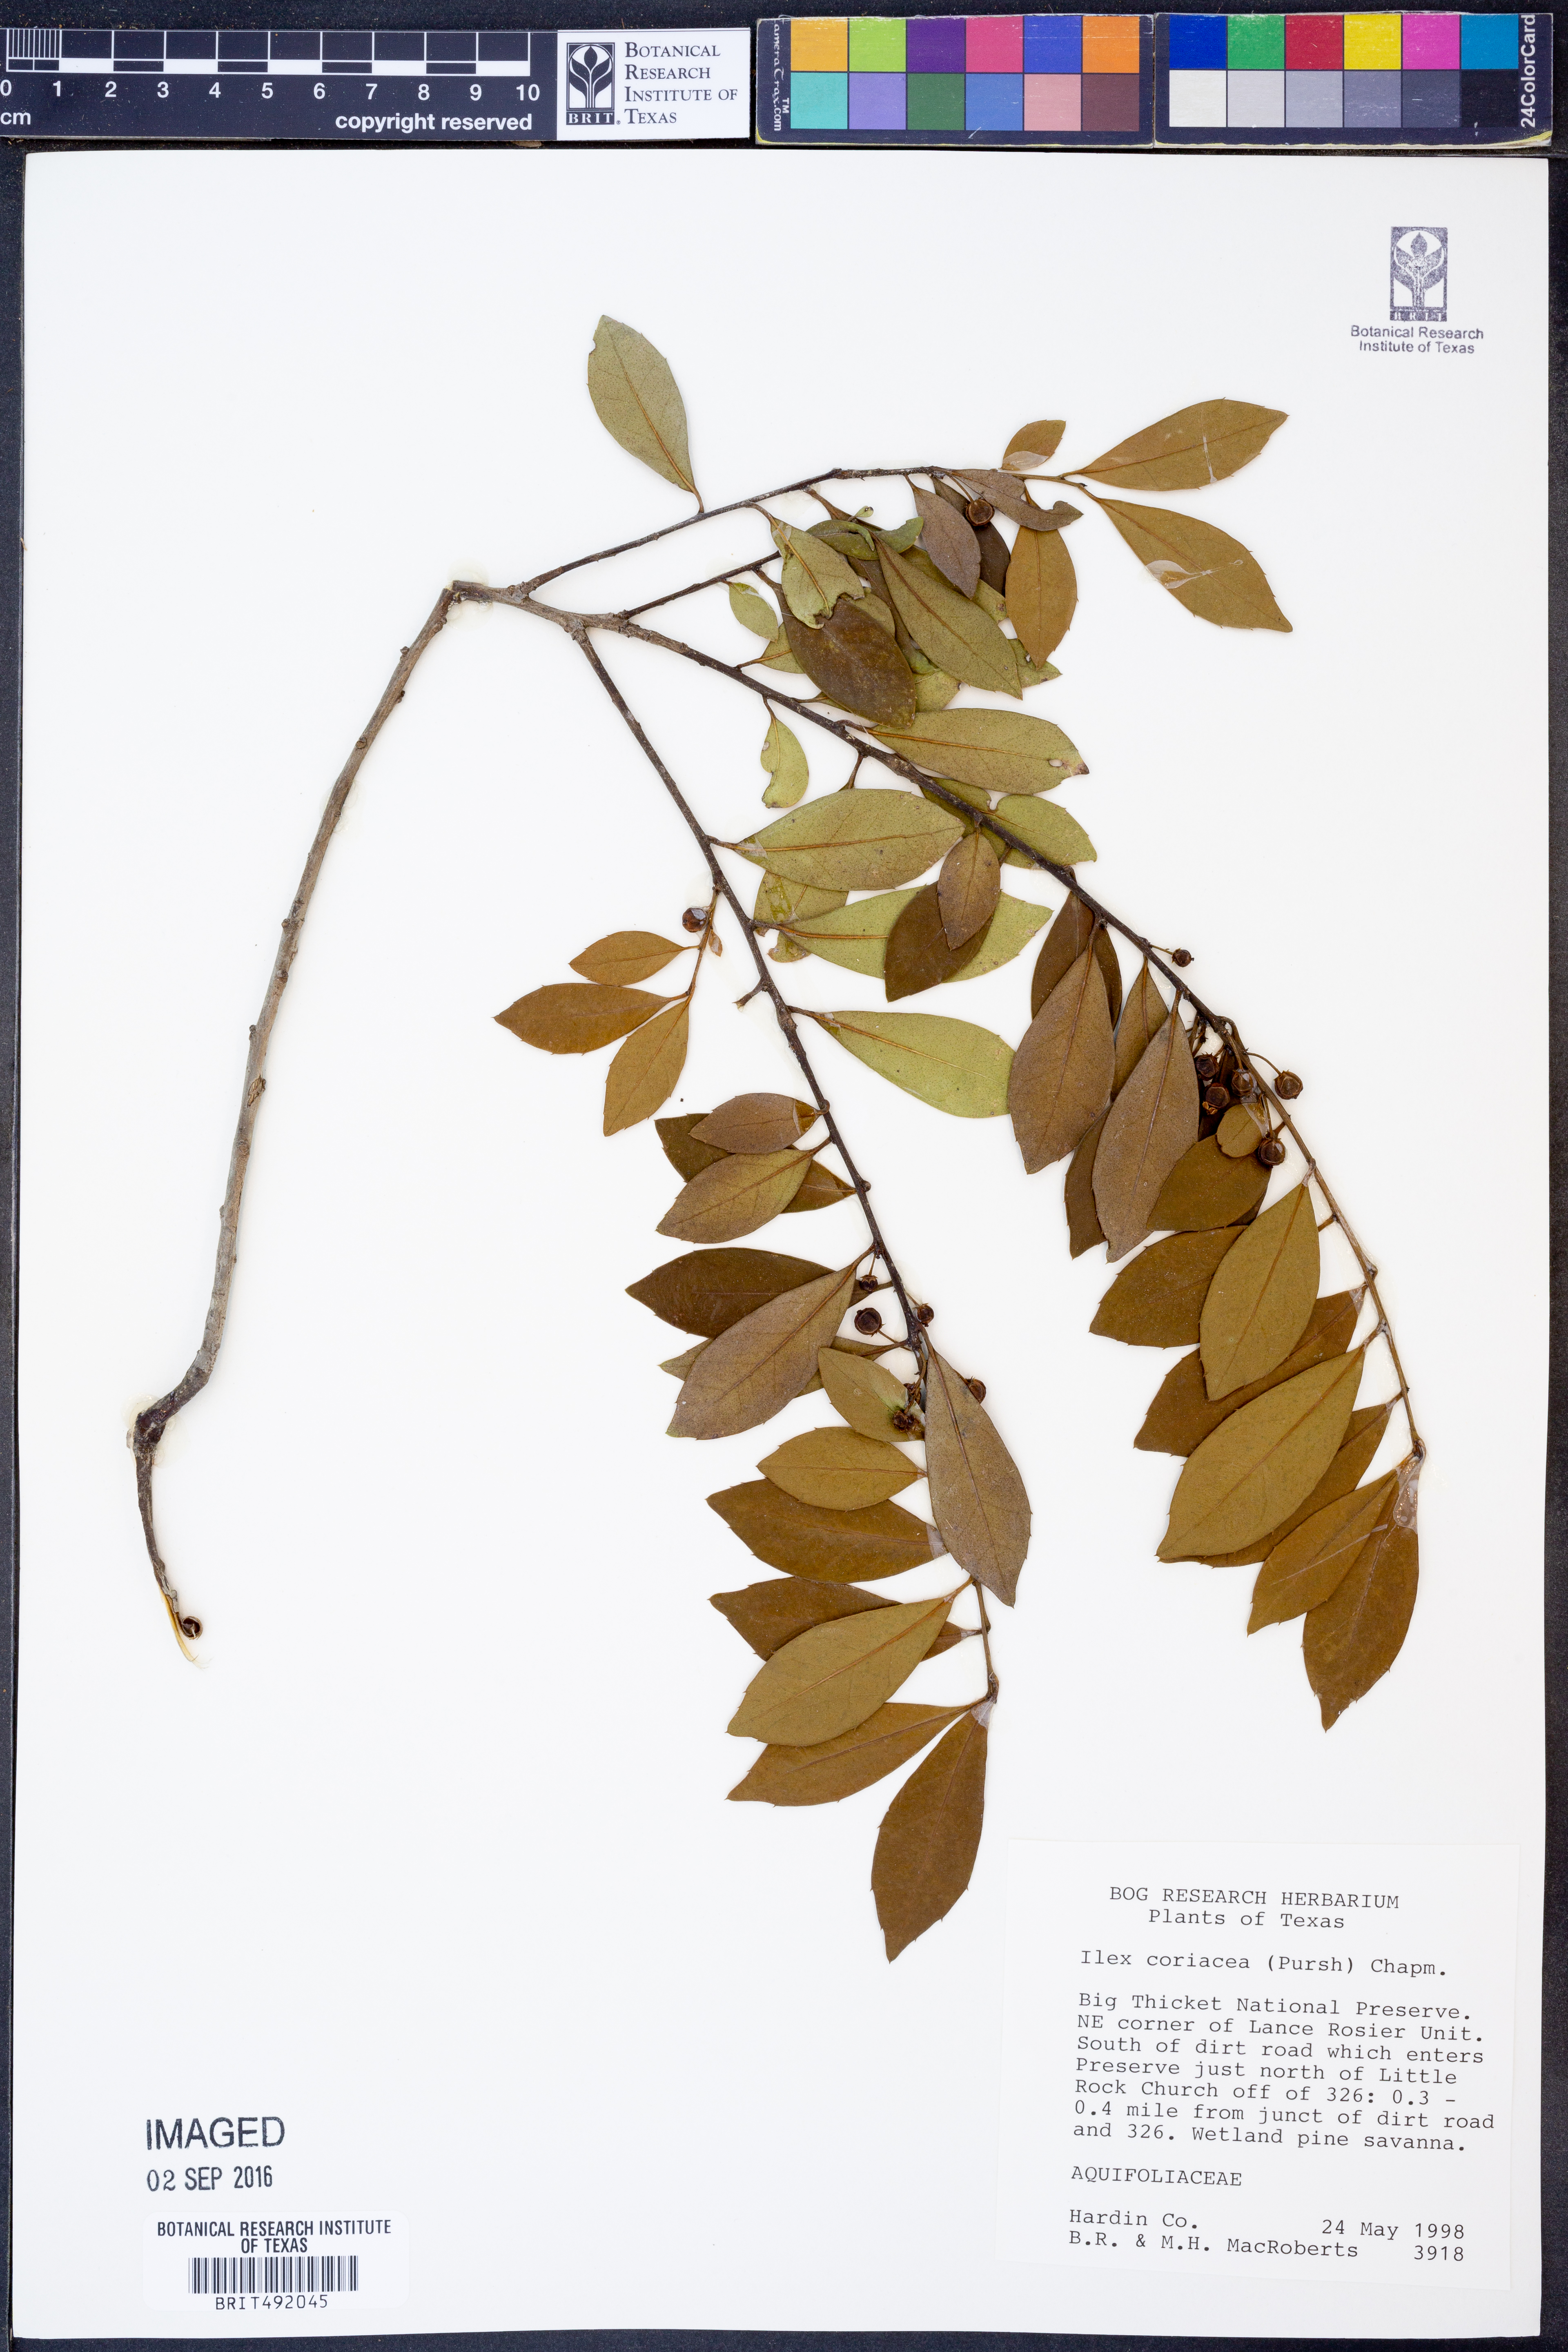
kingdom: Plantae
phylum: Tracheophyta
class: Magnoliopsida
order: Aquifoliales
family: Aquifoliaceae
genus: Ilex
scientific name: Ilex coriacea
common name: Sweet gallberry
